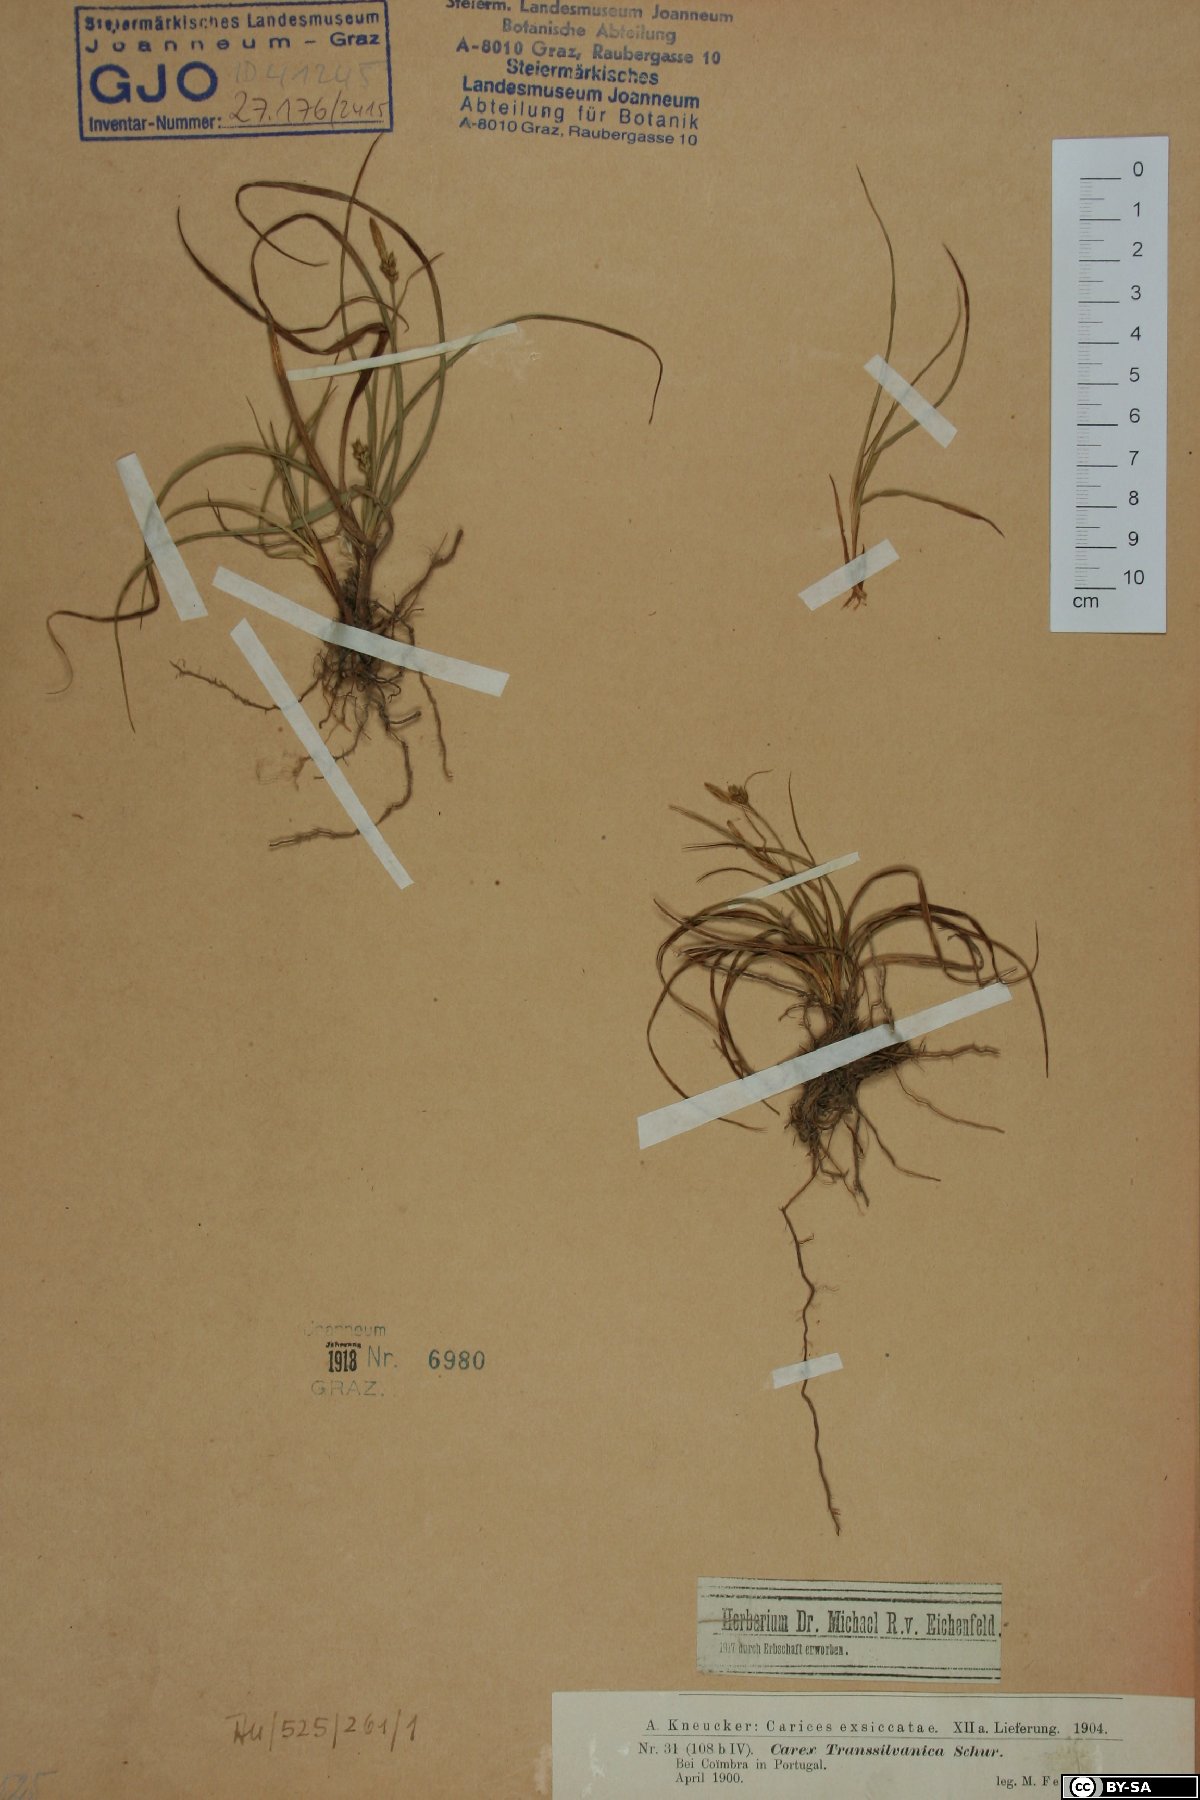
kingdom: Plantae
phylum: Tracheophyta
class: Liliopsida
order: Poales
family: Cyperaceae
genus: Carex
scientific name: Carex depressa
